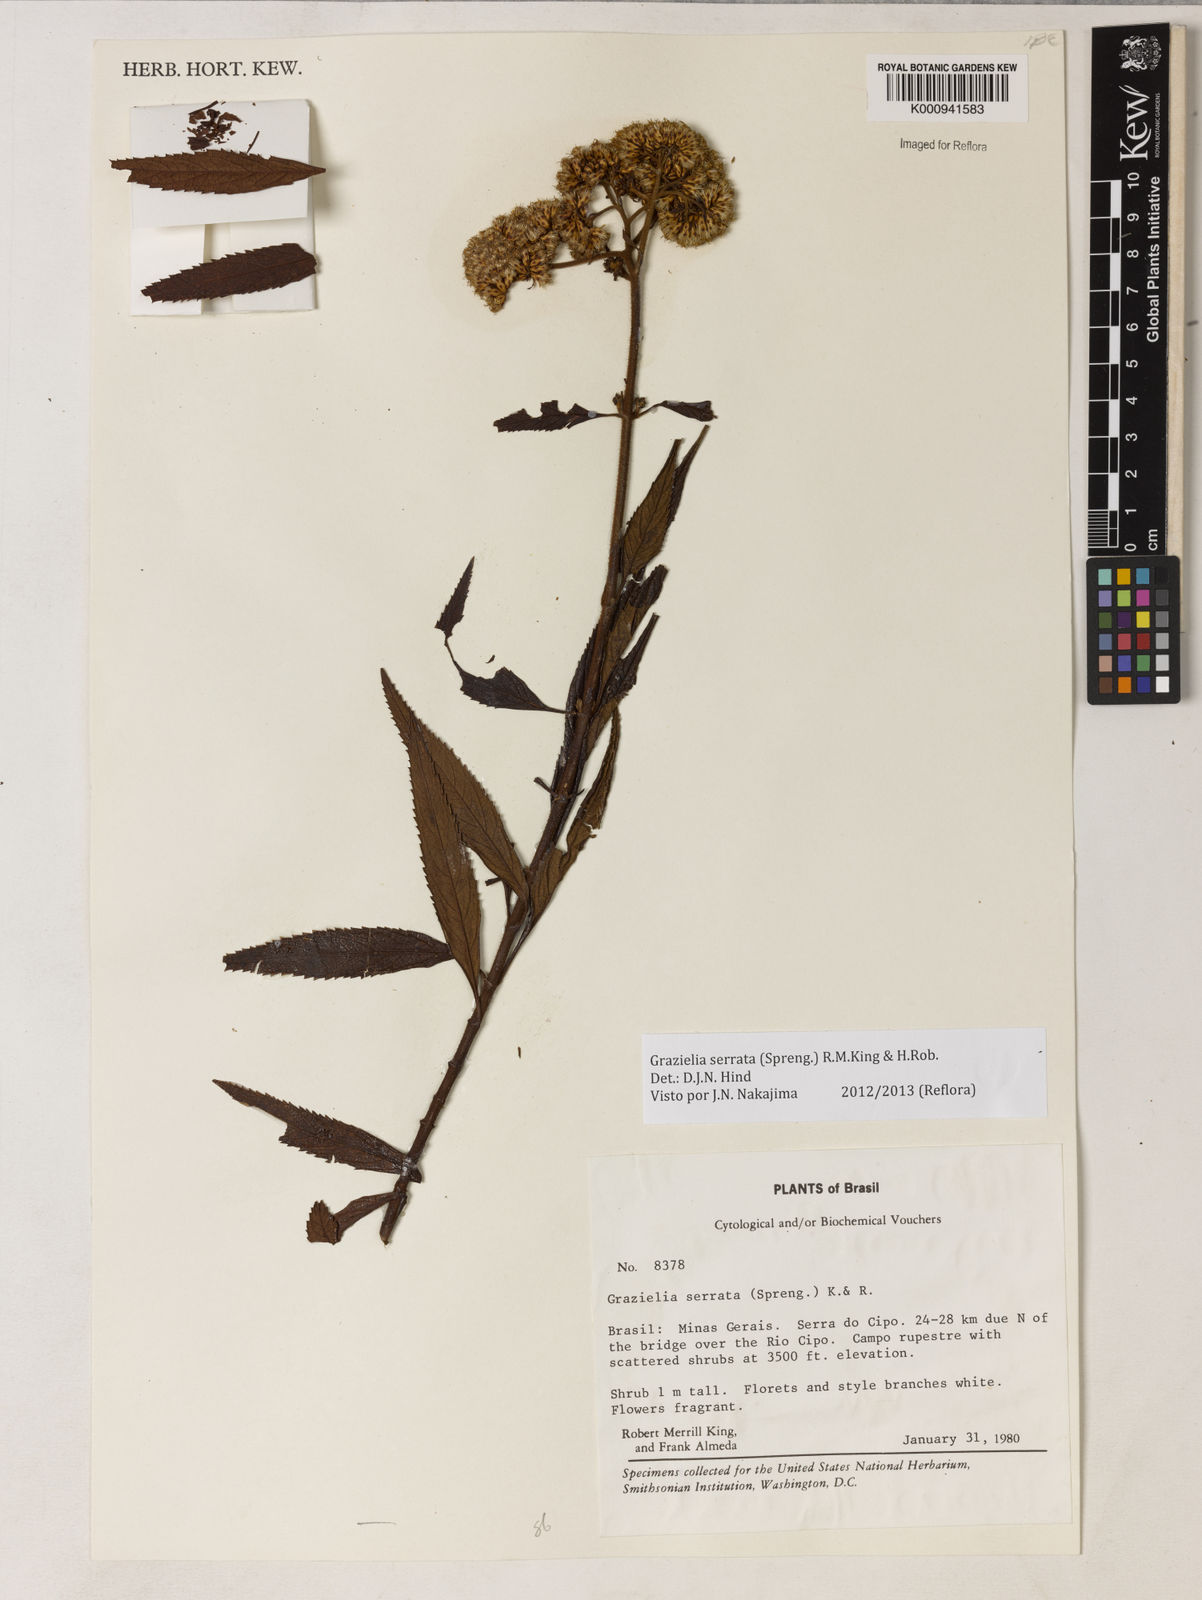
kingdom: Plantae
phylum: Tracheophyta
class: Magnoliopsida
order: Asterales
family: Asteraceae
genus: Grazielia
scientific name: Grazielia serrata
